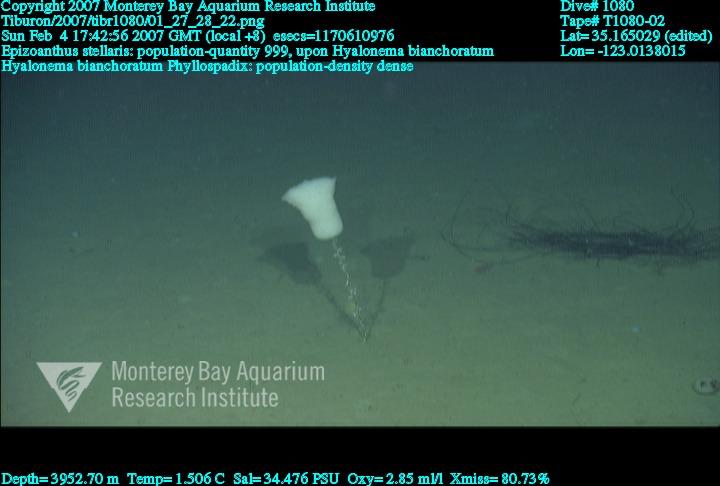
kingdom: Animalia
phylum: Porifera
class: Hexactinellida
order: Amphidiscosida
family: Hyalonematidae
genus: Hyalonema
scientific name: Hyalonema bianchoratum
